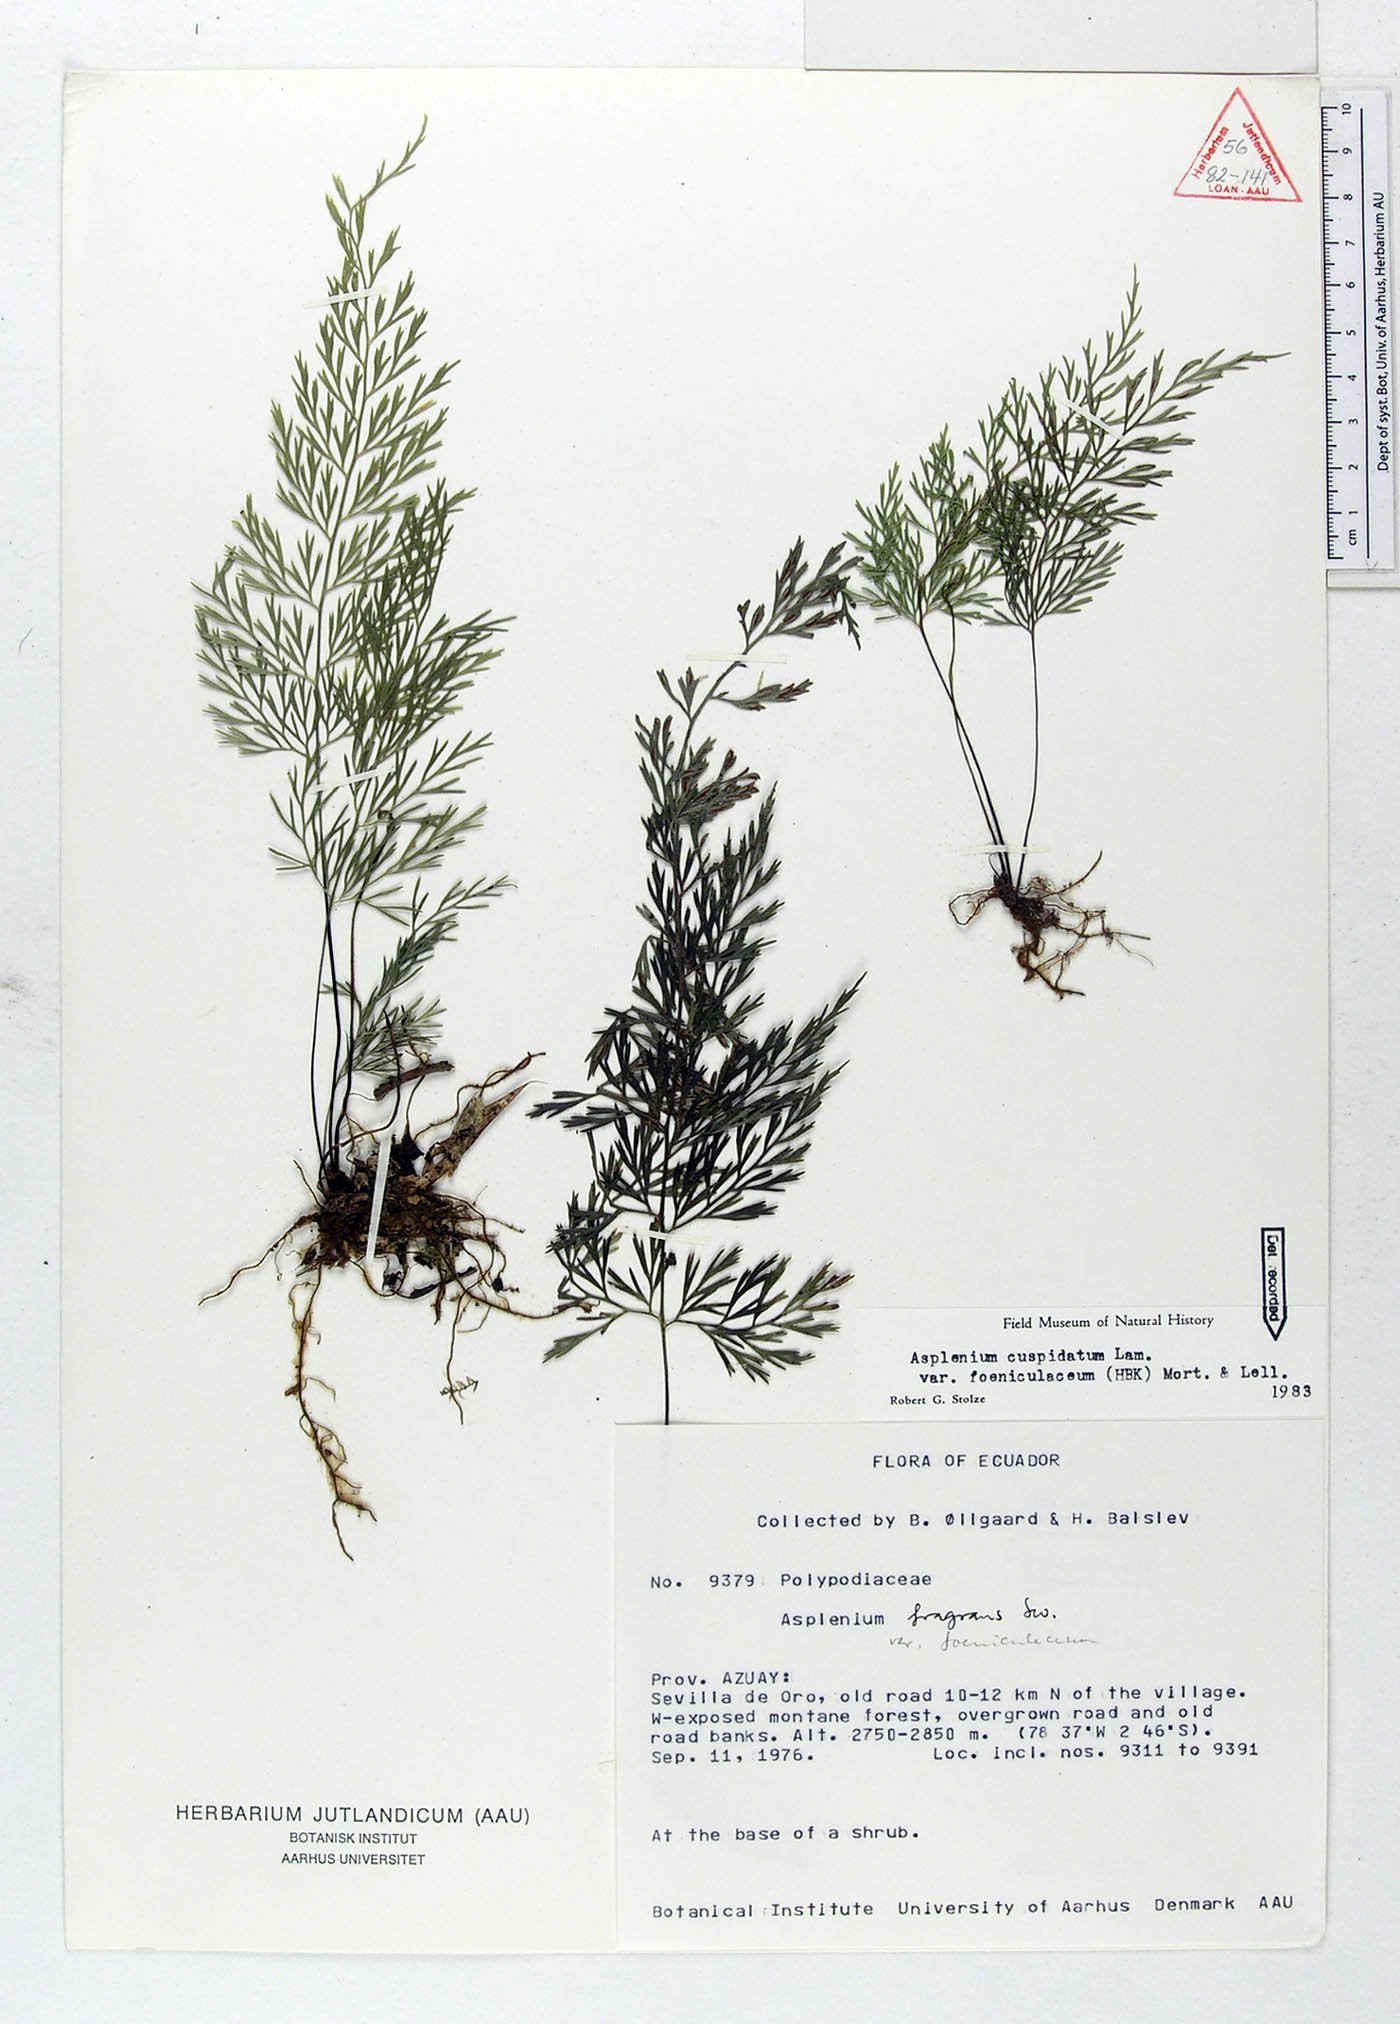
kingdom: Plantae
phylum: Tracheophyta
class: Polypodiopsida
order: Polypodiales
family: Aspleniaceae
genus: Asplenium
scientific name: Asplenium fragrans
